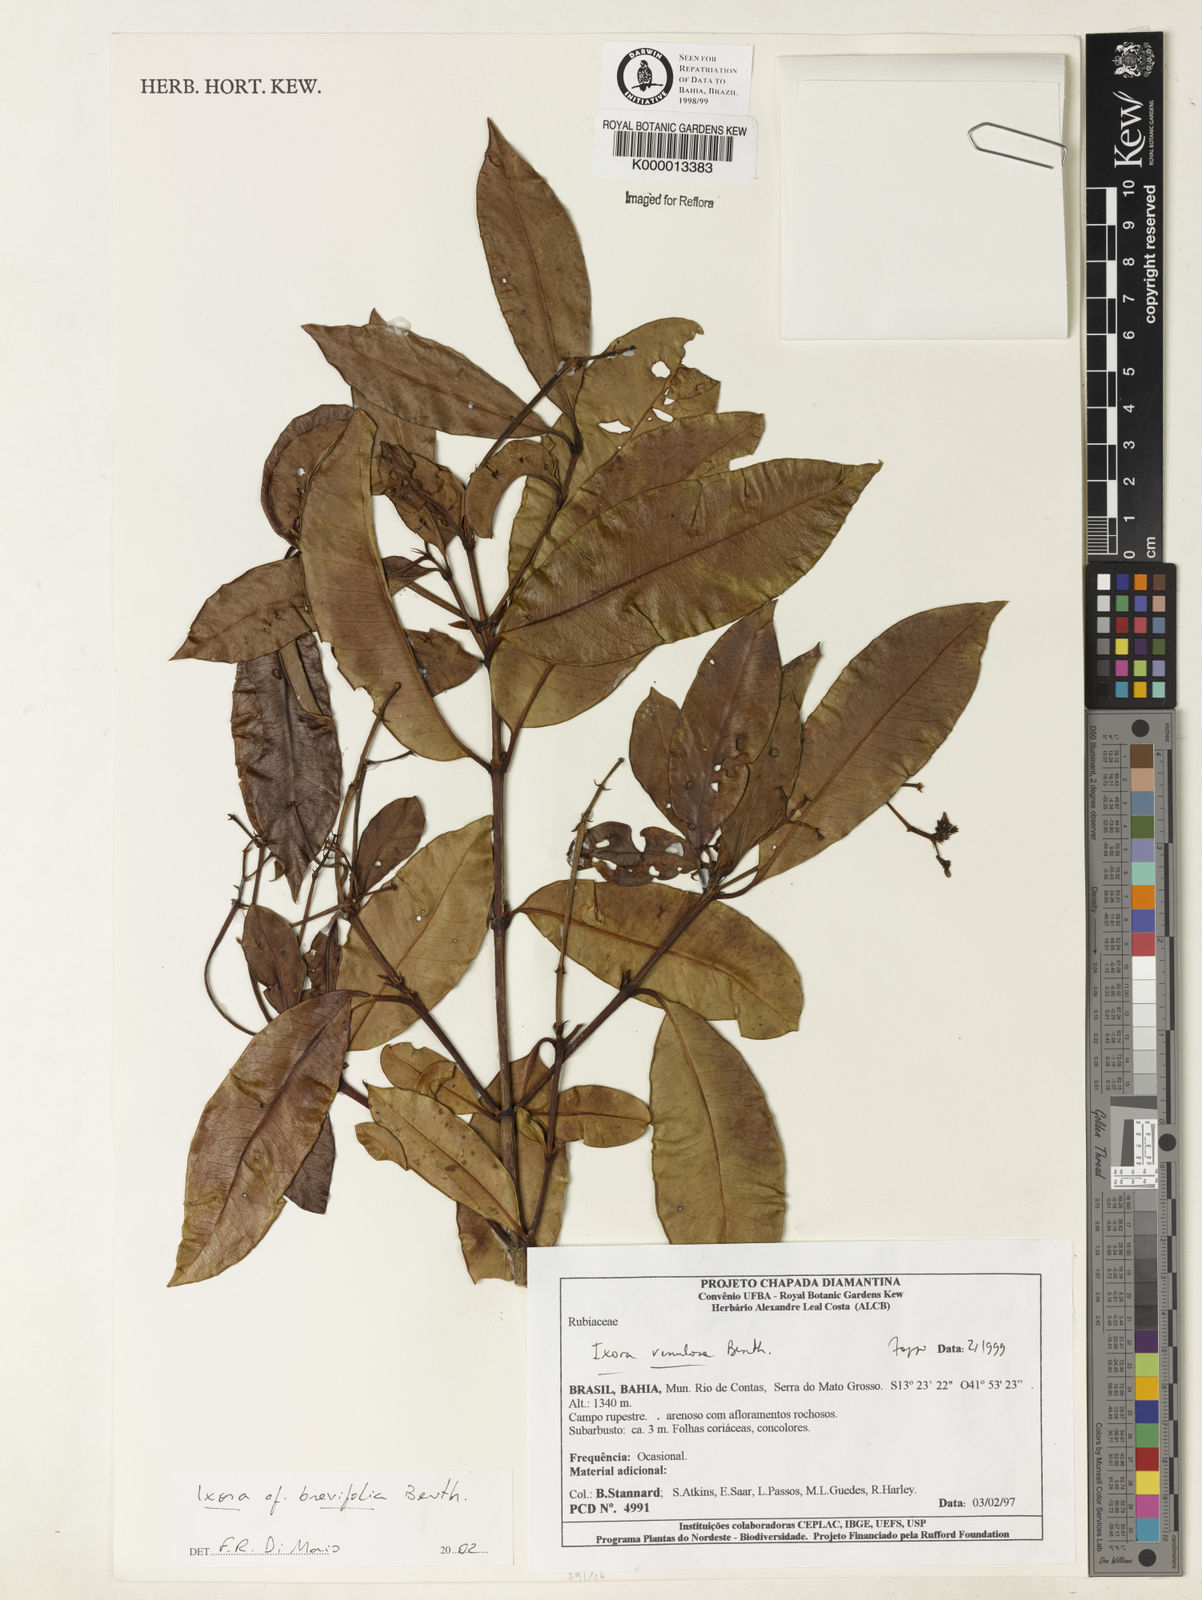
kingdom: Plantae
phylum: Tracheophyta
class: Magnoliopsida
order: Gentianales
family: Rubiaceae
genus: Ixora
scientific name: Ixora guineensis
